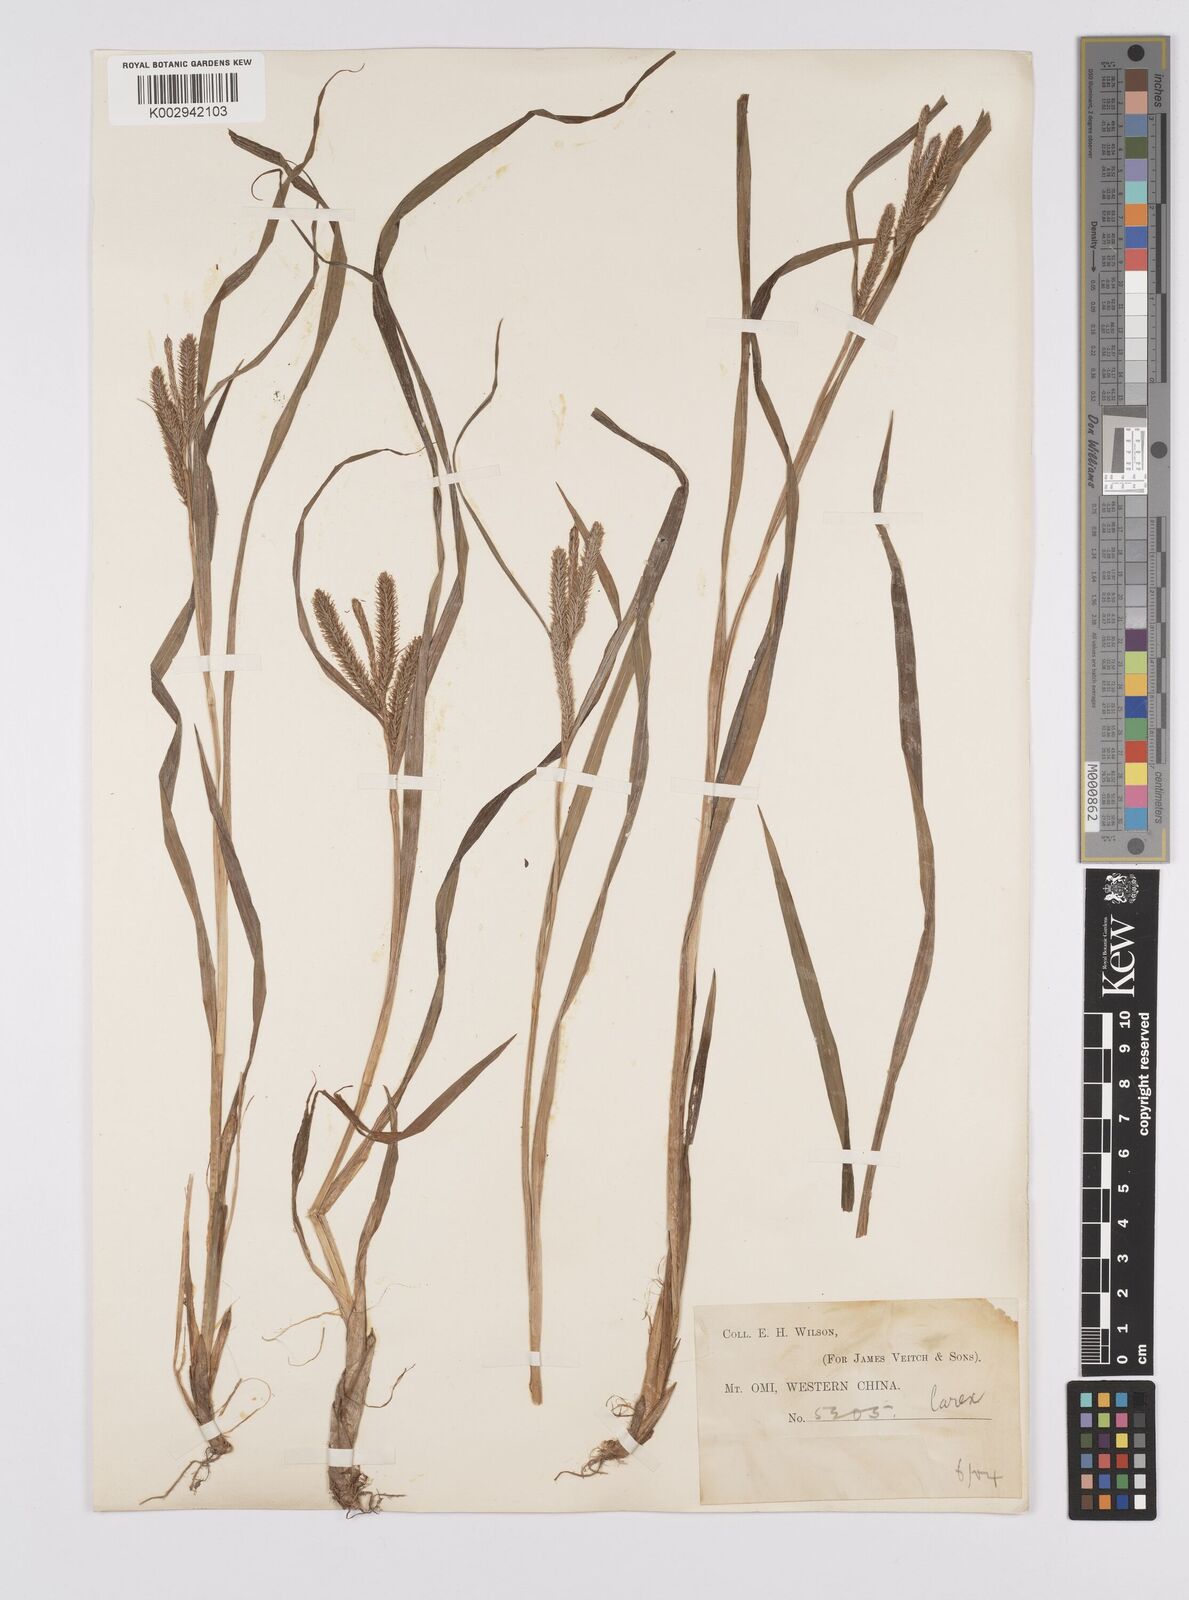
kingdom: Plantae
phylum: Tracheophyta
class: Liliopsida
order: Poales
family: Cyperaceae
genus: Carex
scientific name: Carex japonica
